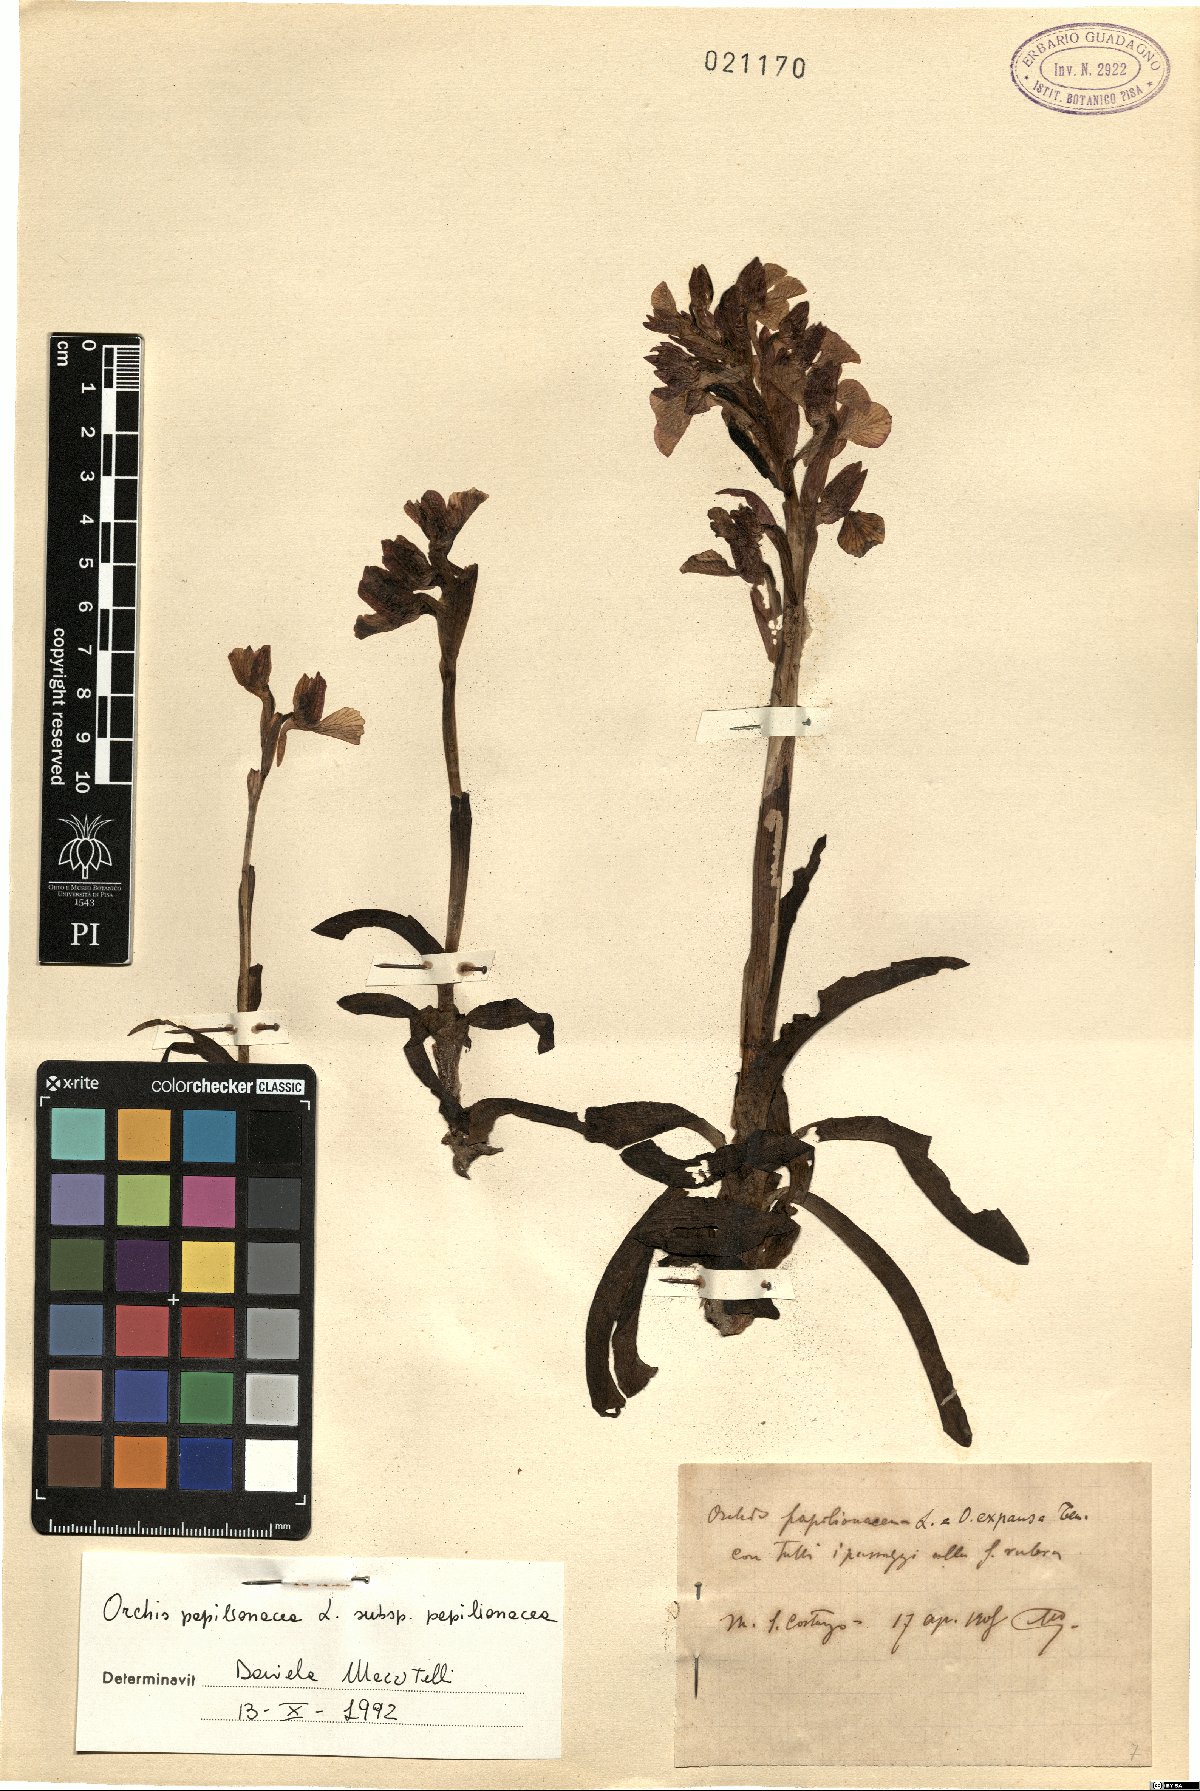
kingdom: Plantae
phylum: Tracheophyta
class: Liliopsida
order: Asparagales
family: Orchidaceae
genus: Anacamptis
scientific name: Anacamptis papilionacea
